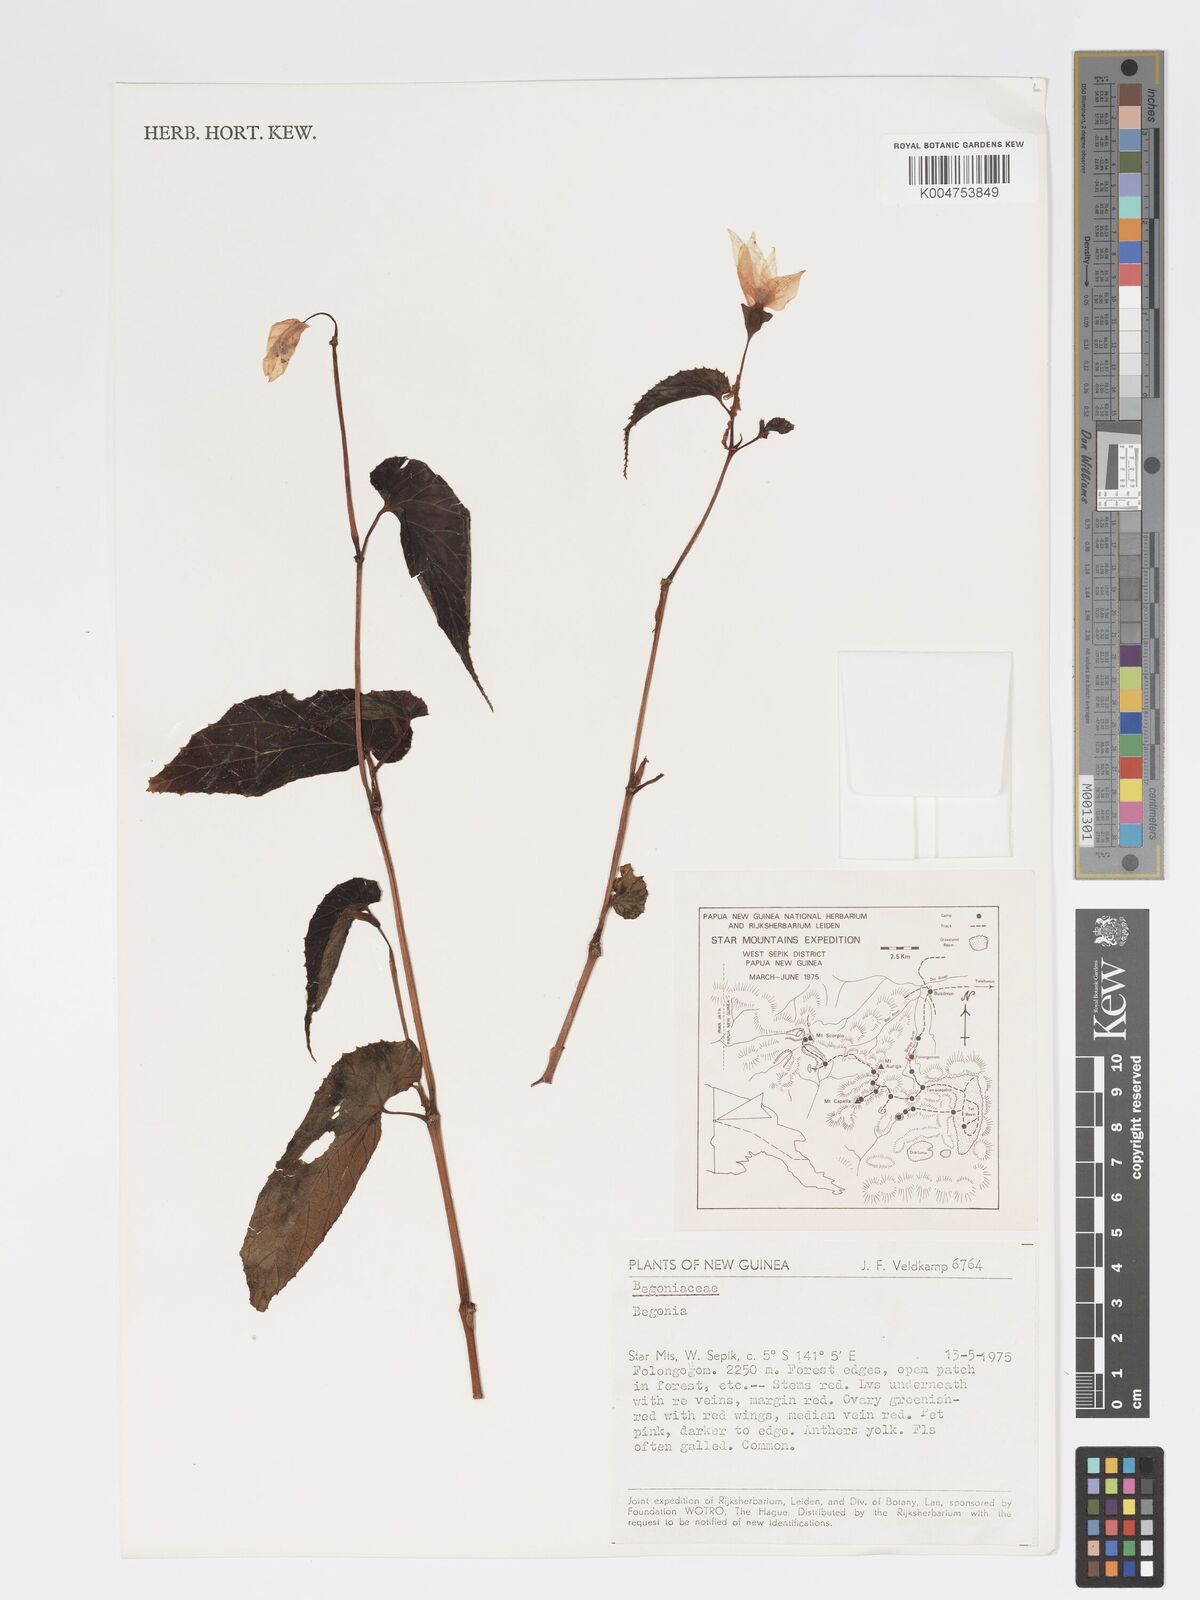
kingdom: Plantae
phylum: Tracheophyta
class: Magnoliopsida
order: Cucurbitales
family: Begoniaceae
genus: Begonia
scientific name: Begonia
